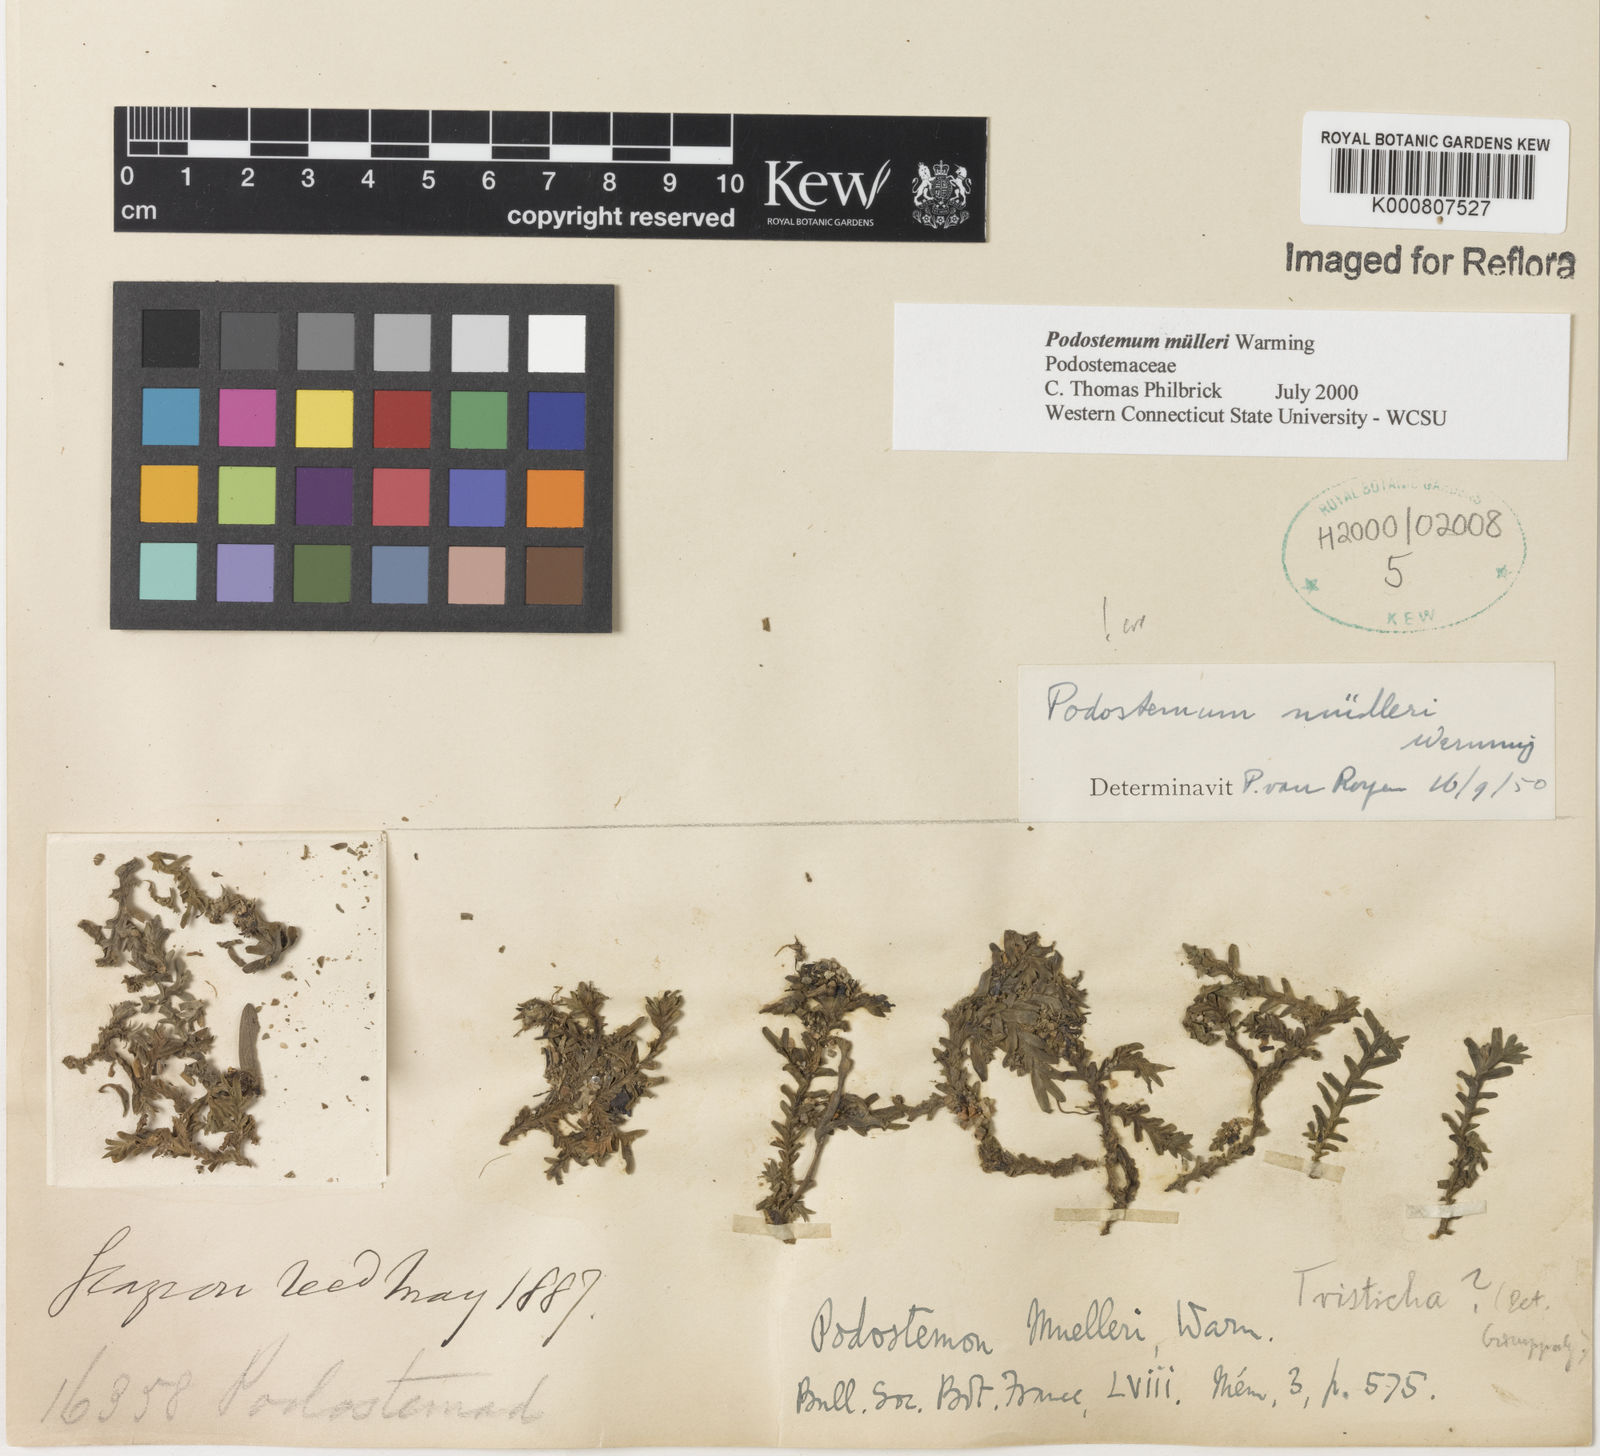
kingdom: Plantae
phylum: Tracheophyta
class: Magnoliopsida
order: Malpighiales
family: Podostemaceae
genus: Podostemum
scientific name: Podostemum muelleri
